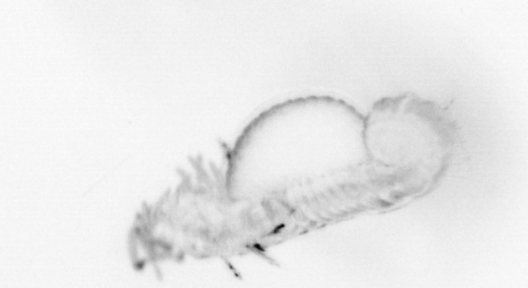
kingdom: Animalia
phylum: Annelida
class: Polychaeta
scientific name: Polychaeta
